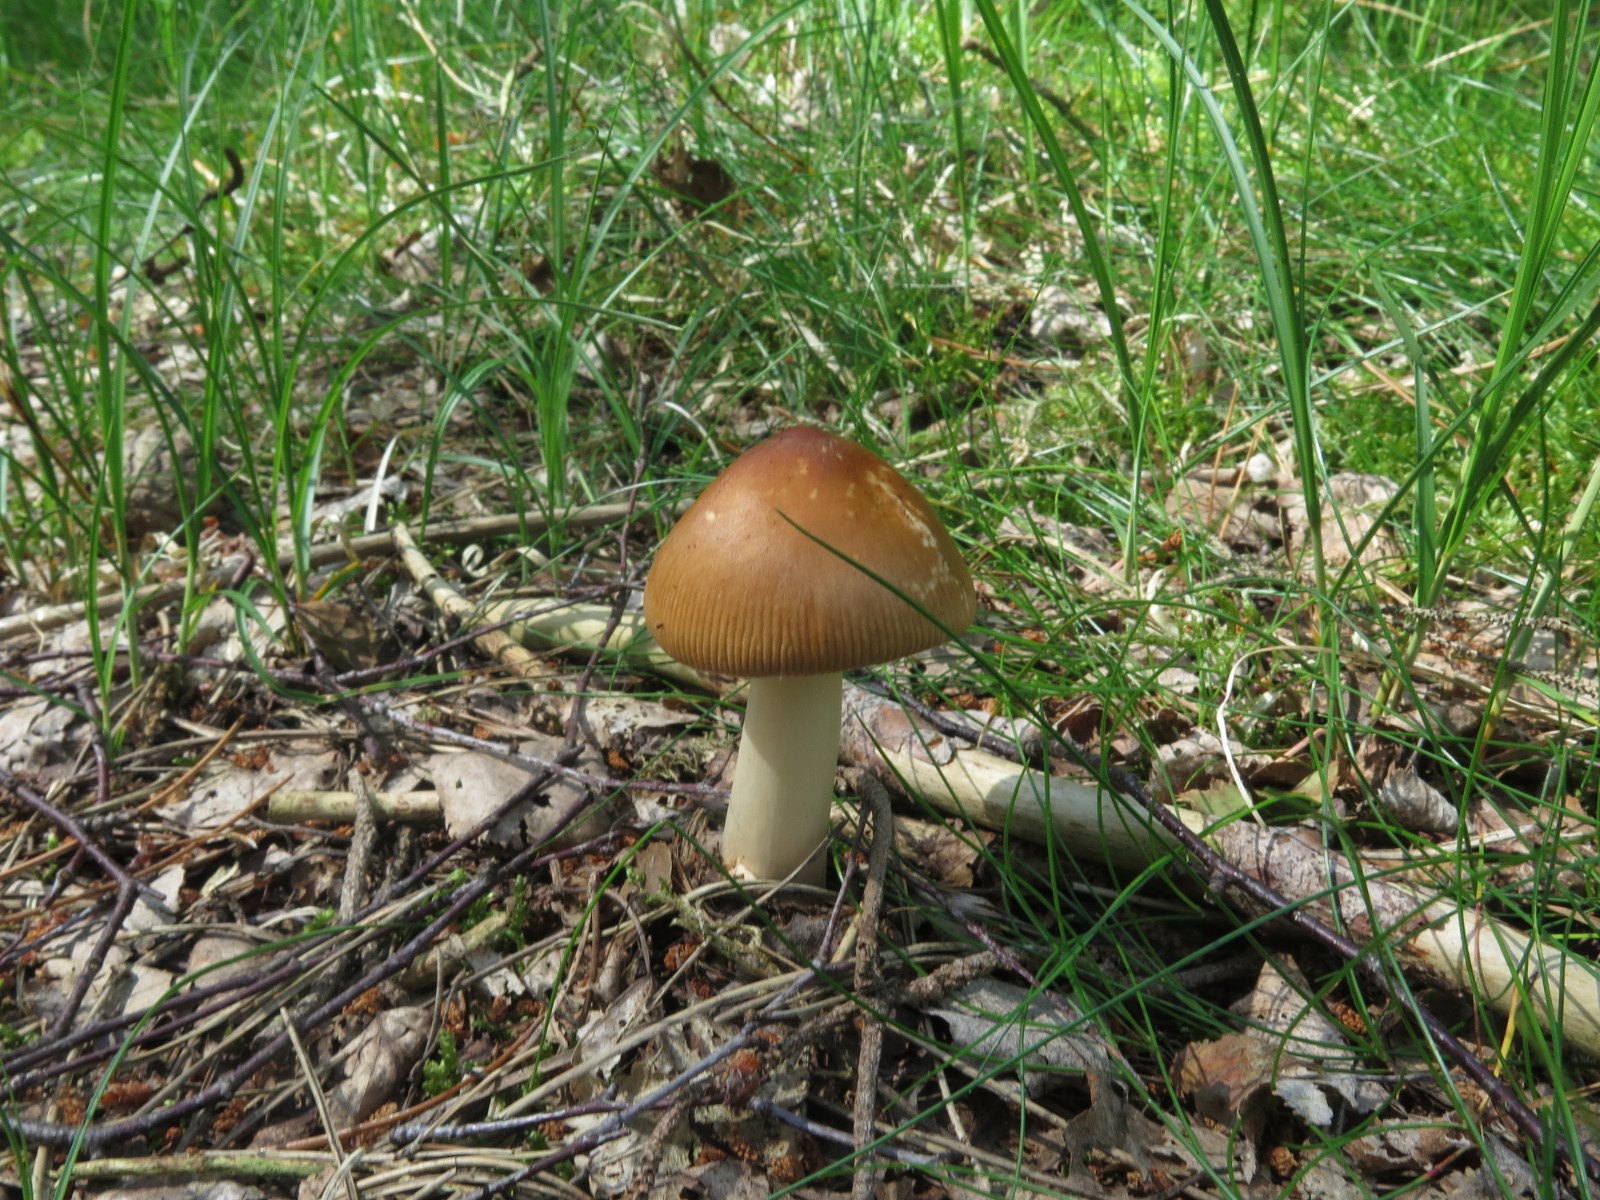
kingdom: Fungi
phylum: Basidiomycota
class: Agaricomycetes
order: Agaricales
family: Amanitaceae
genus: Amanita
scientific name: Amanita fulva
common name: brun kam-fluesvamp
